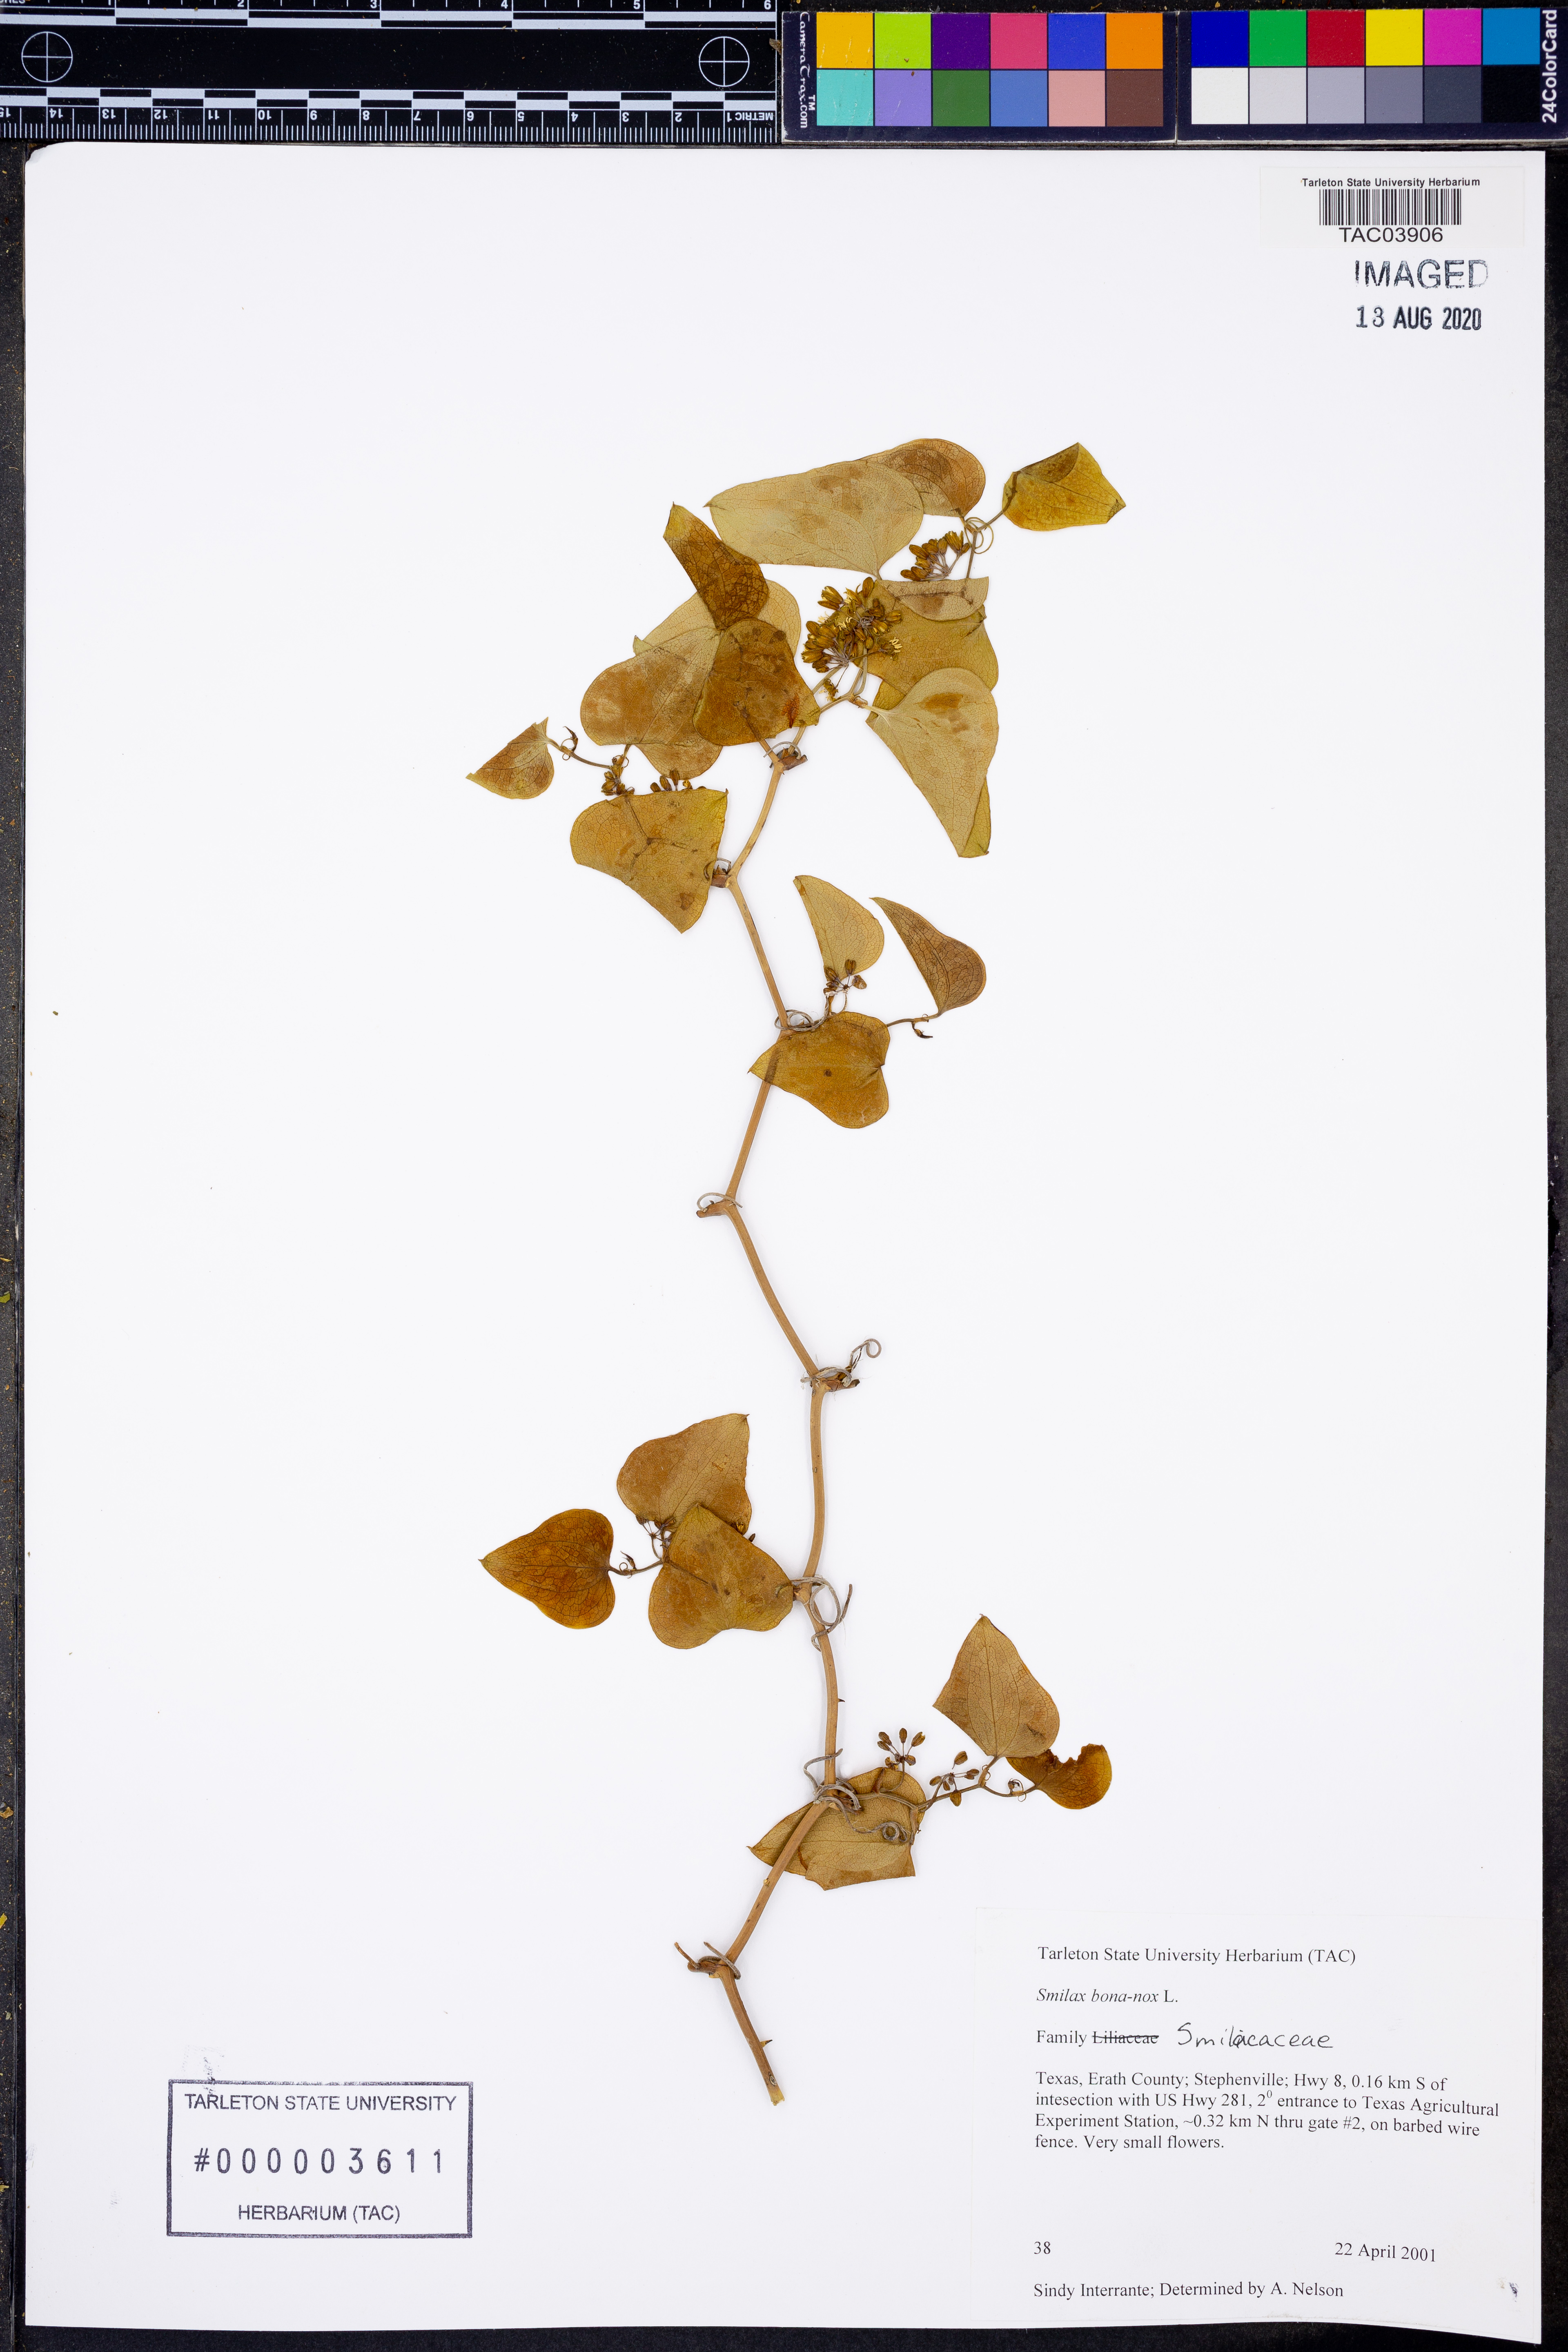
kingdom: Plantae
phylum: Tracheophyta
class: Liliopsida
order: Liliales
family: Smilacaceae
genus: Smilax
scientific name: Smilax bona-nox
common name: Catbrier
